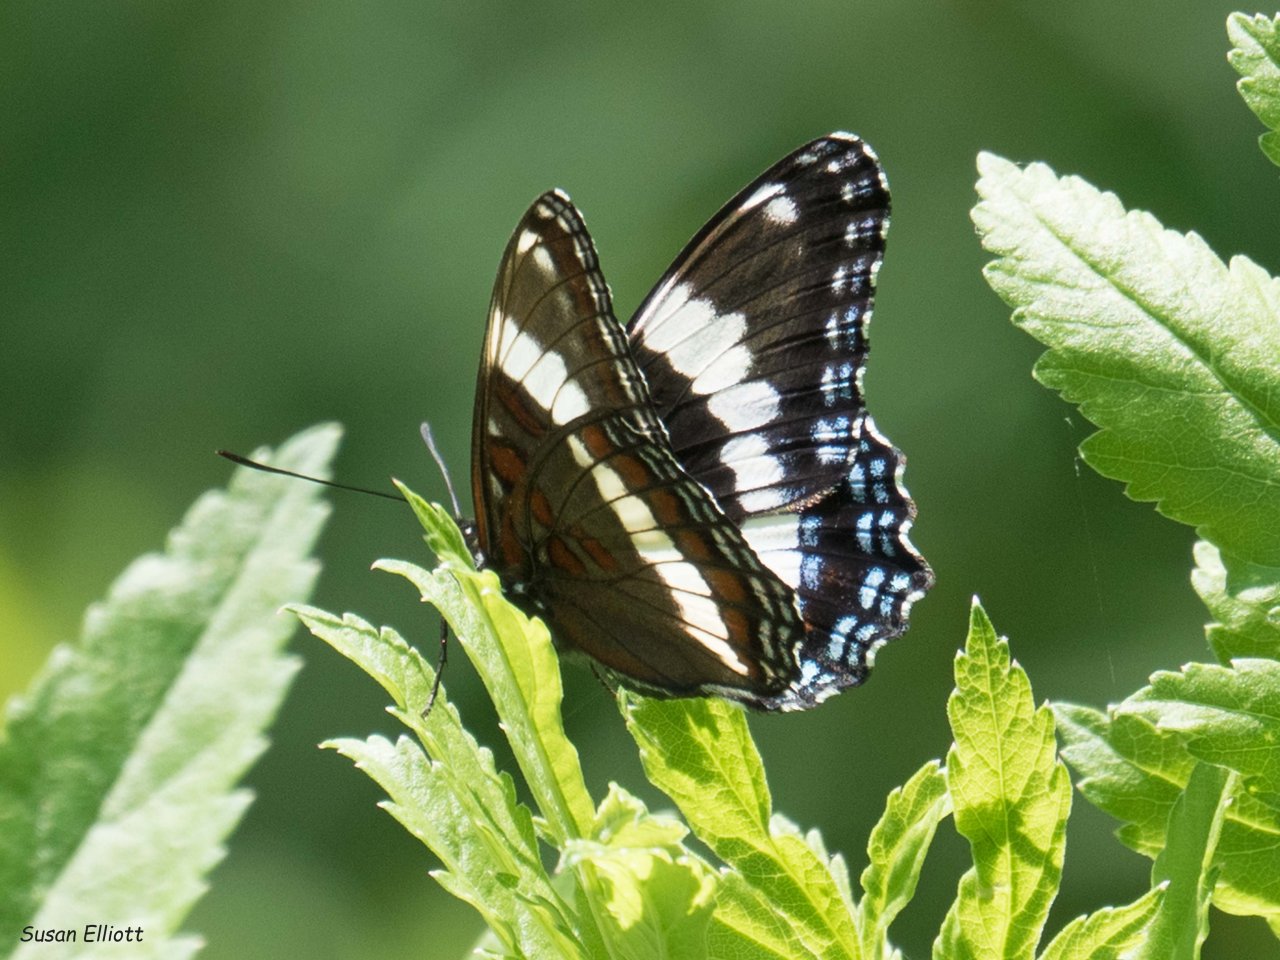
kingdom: Animalia
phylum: Arthropoda
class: Insecta
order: Lepidoptera
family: Nymphalidae
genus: Limenitis
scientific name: Limenitis
